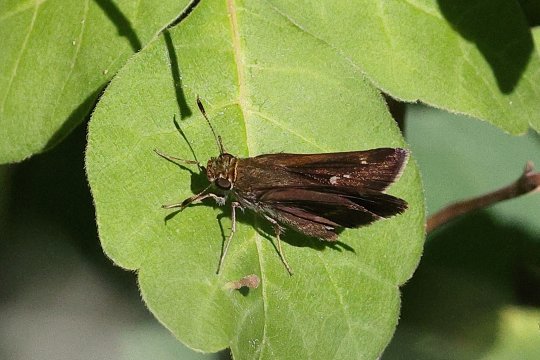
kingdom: Animalia
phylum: Arthropoda
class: Insecta
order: Lepidoptera
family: Hesperiidae
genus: Euphyes
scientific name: Euphyes vestris
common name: Dun Skipper
